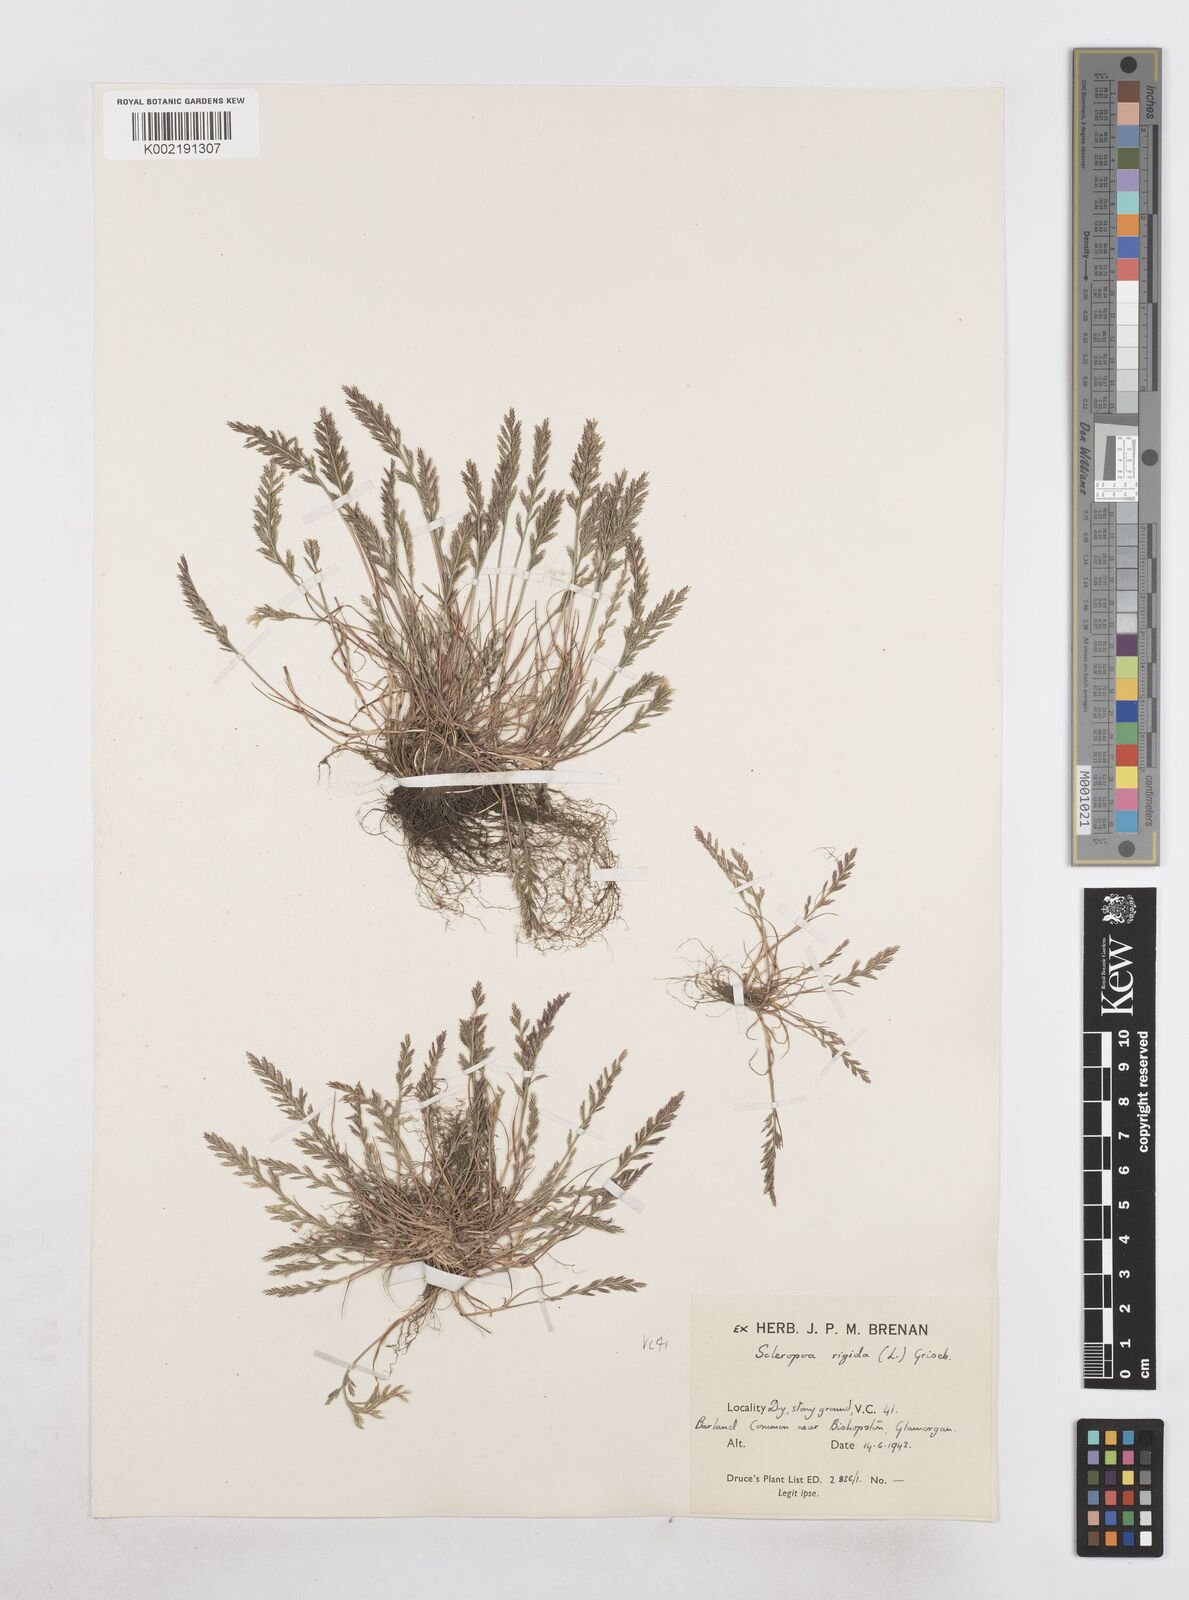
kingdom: Plantae
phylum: Tracheophyta
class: Liliopsida
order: Poales
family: Poaceae
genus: Catapodium
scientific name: Catapodium rigidum
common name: Fern-grass
